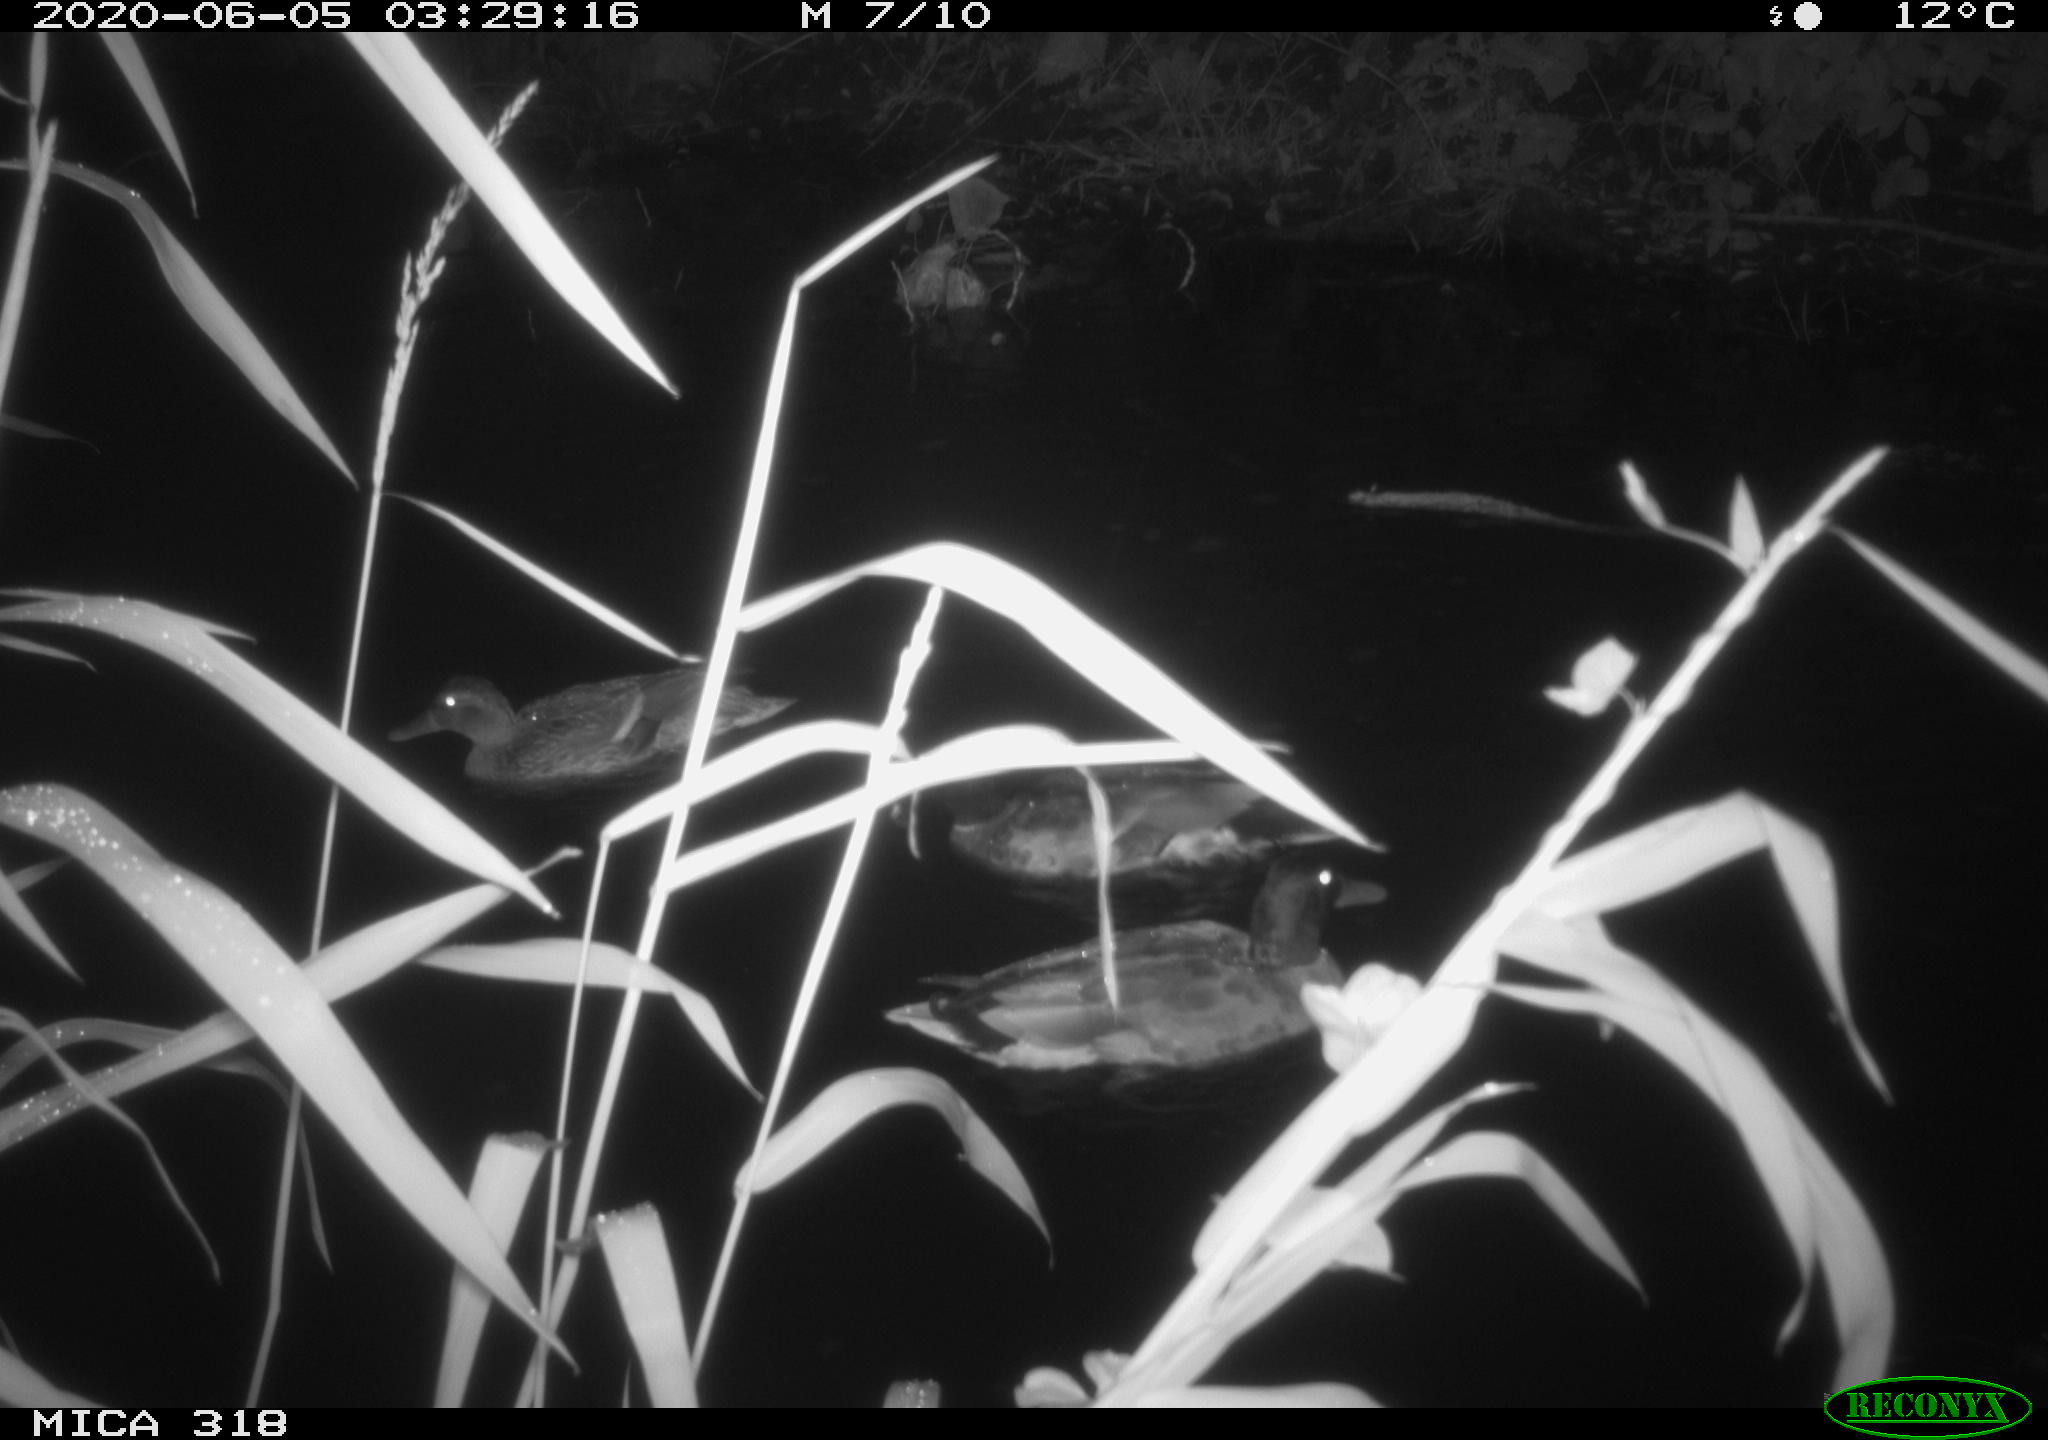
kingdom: Animalia
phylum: Chordata
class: Aves
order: Anseriformes
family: Anatidae
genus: Anas
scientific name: Anas platyrhynchos
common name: Mallard
